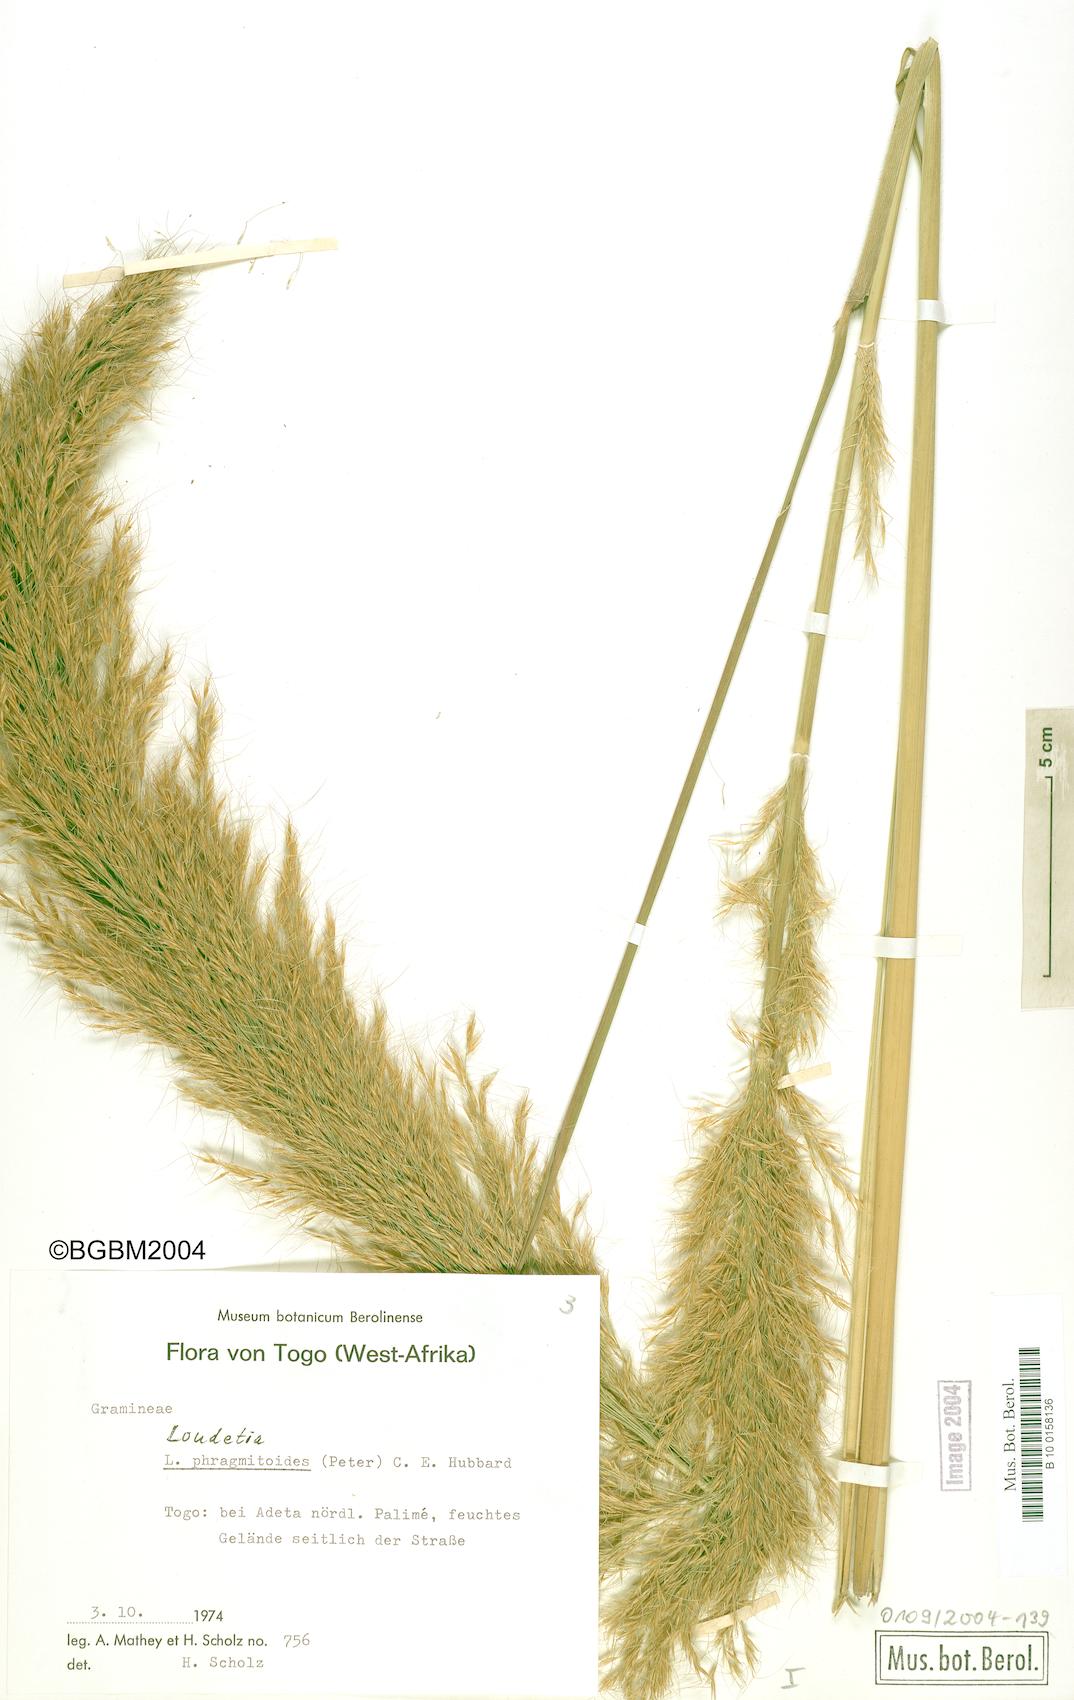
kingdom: Plantae
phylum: Tracheophyta
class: Liliopsida
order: Poales
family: Poaceae
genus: Loudetia
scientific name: Loudetia phragmitoides
